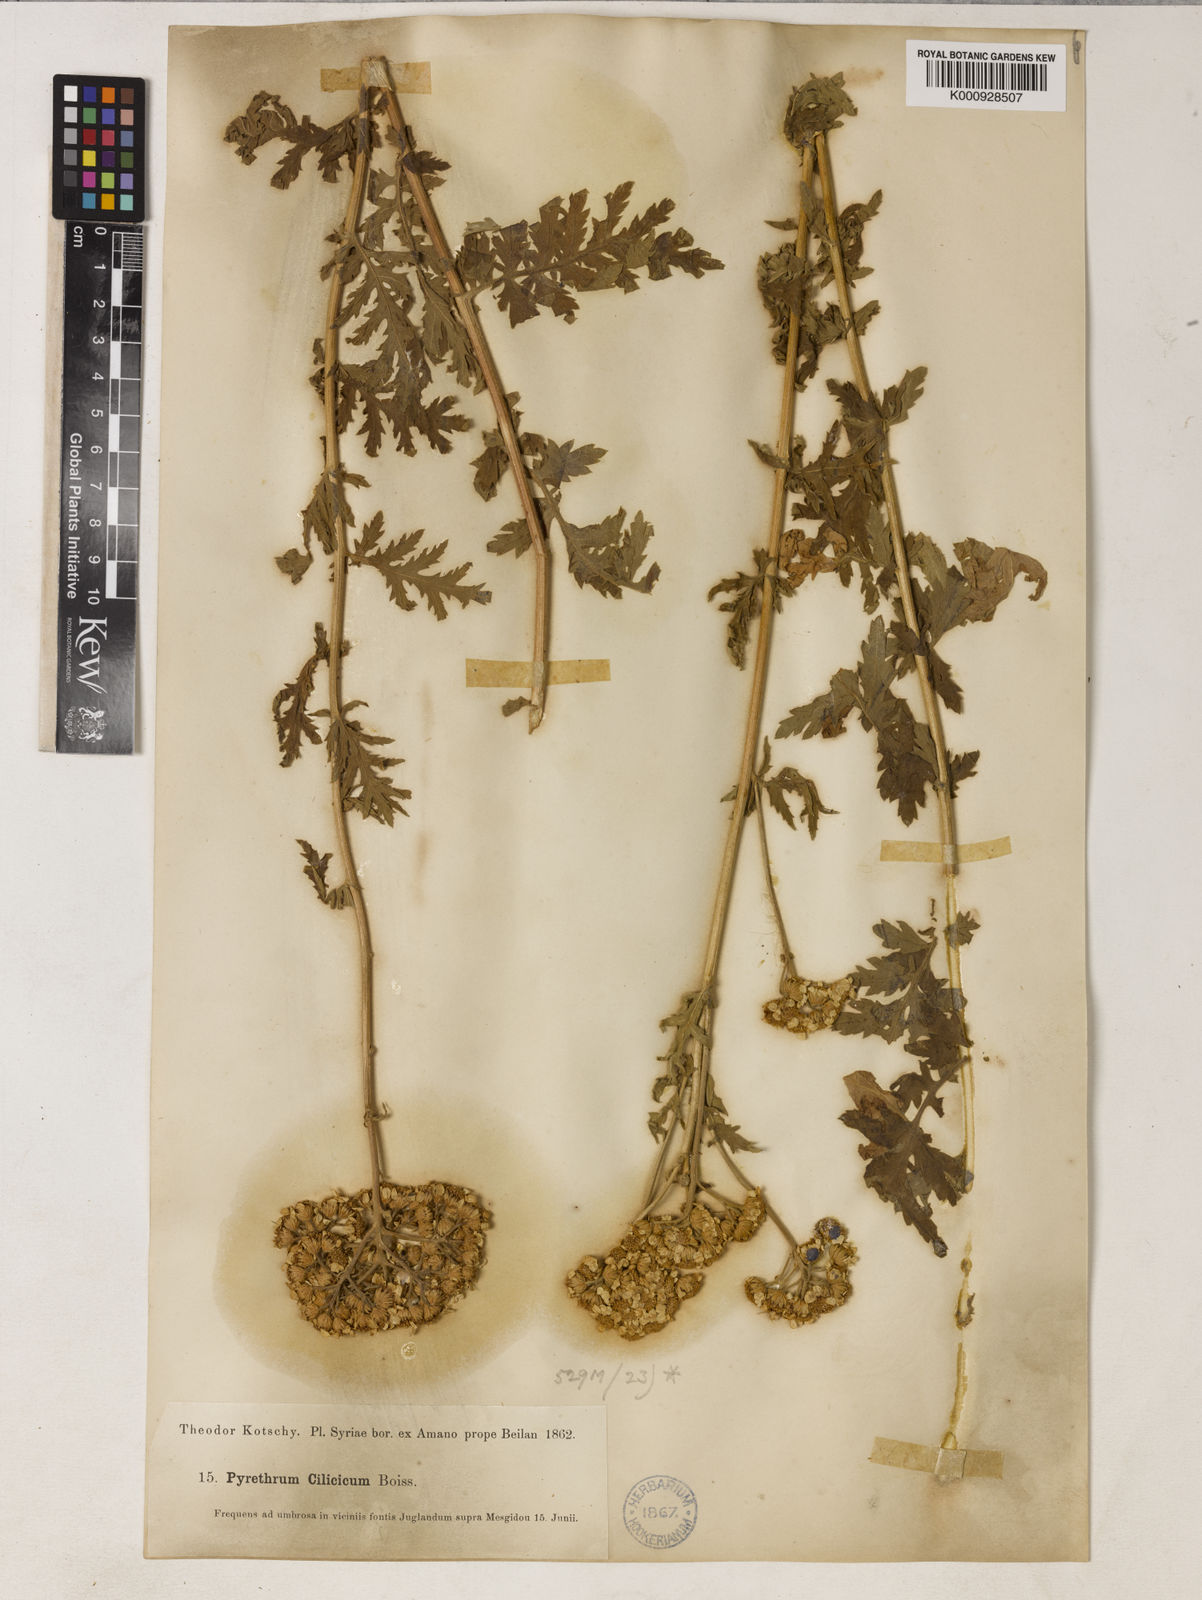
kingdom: Plantae
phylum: Tracheophyta
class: Magnoliopsida
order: Asterales
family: Asteraceae
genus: Tanacetum
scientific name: Tanacetum cilicicum
